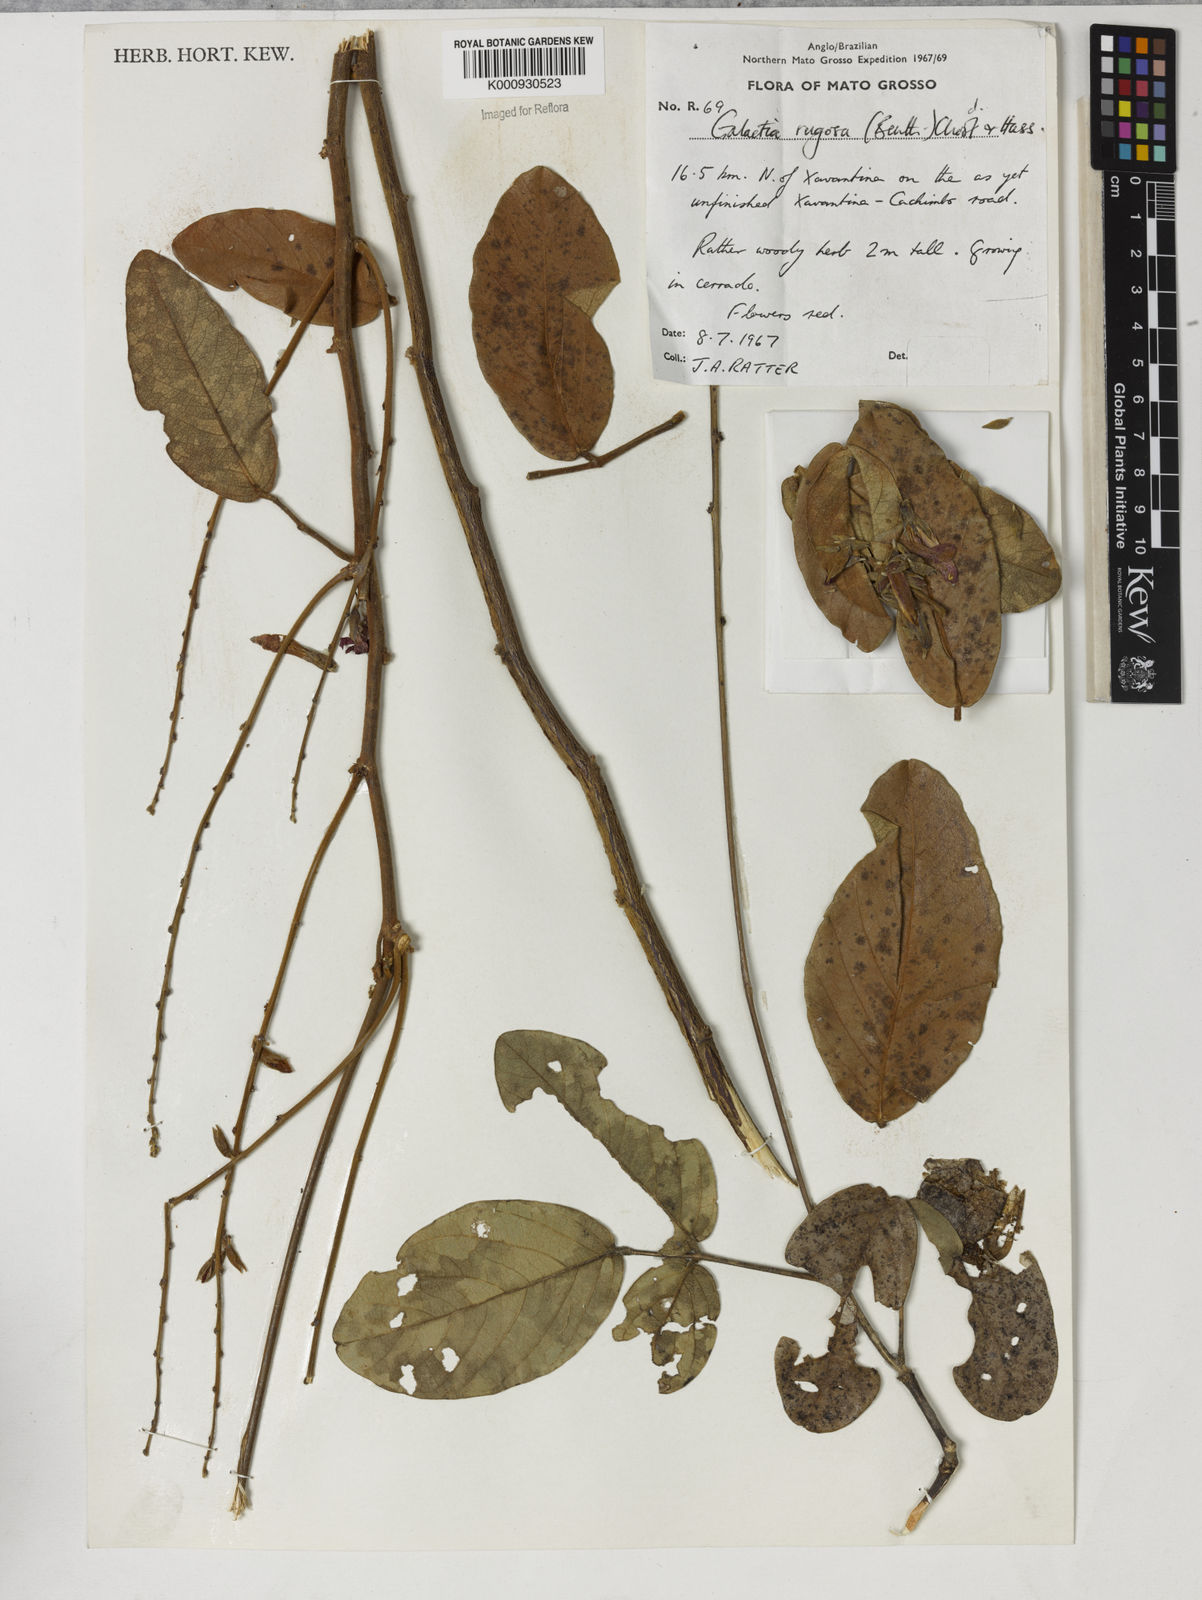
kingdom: Plantae
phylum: Tracheophyta
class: Magnoliopsida
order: Fabales
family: Fabaceae
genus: Galactia
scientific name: Galactia
